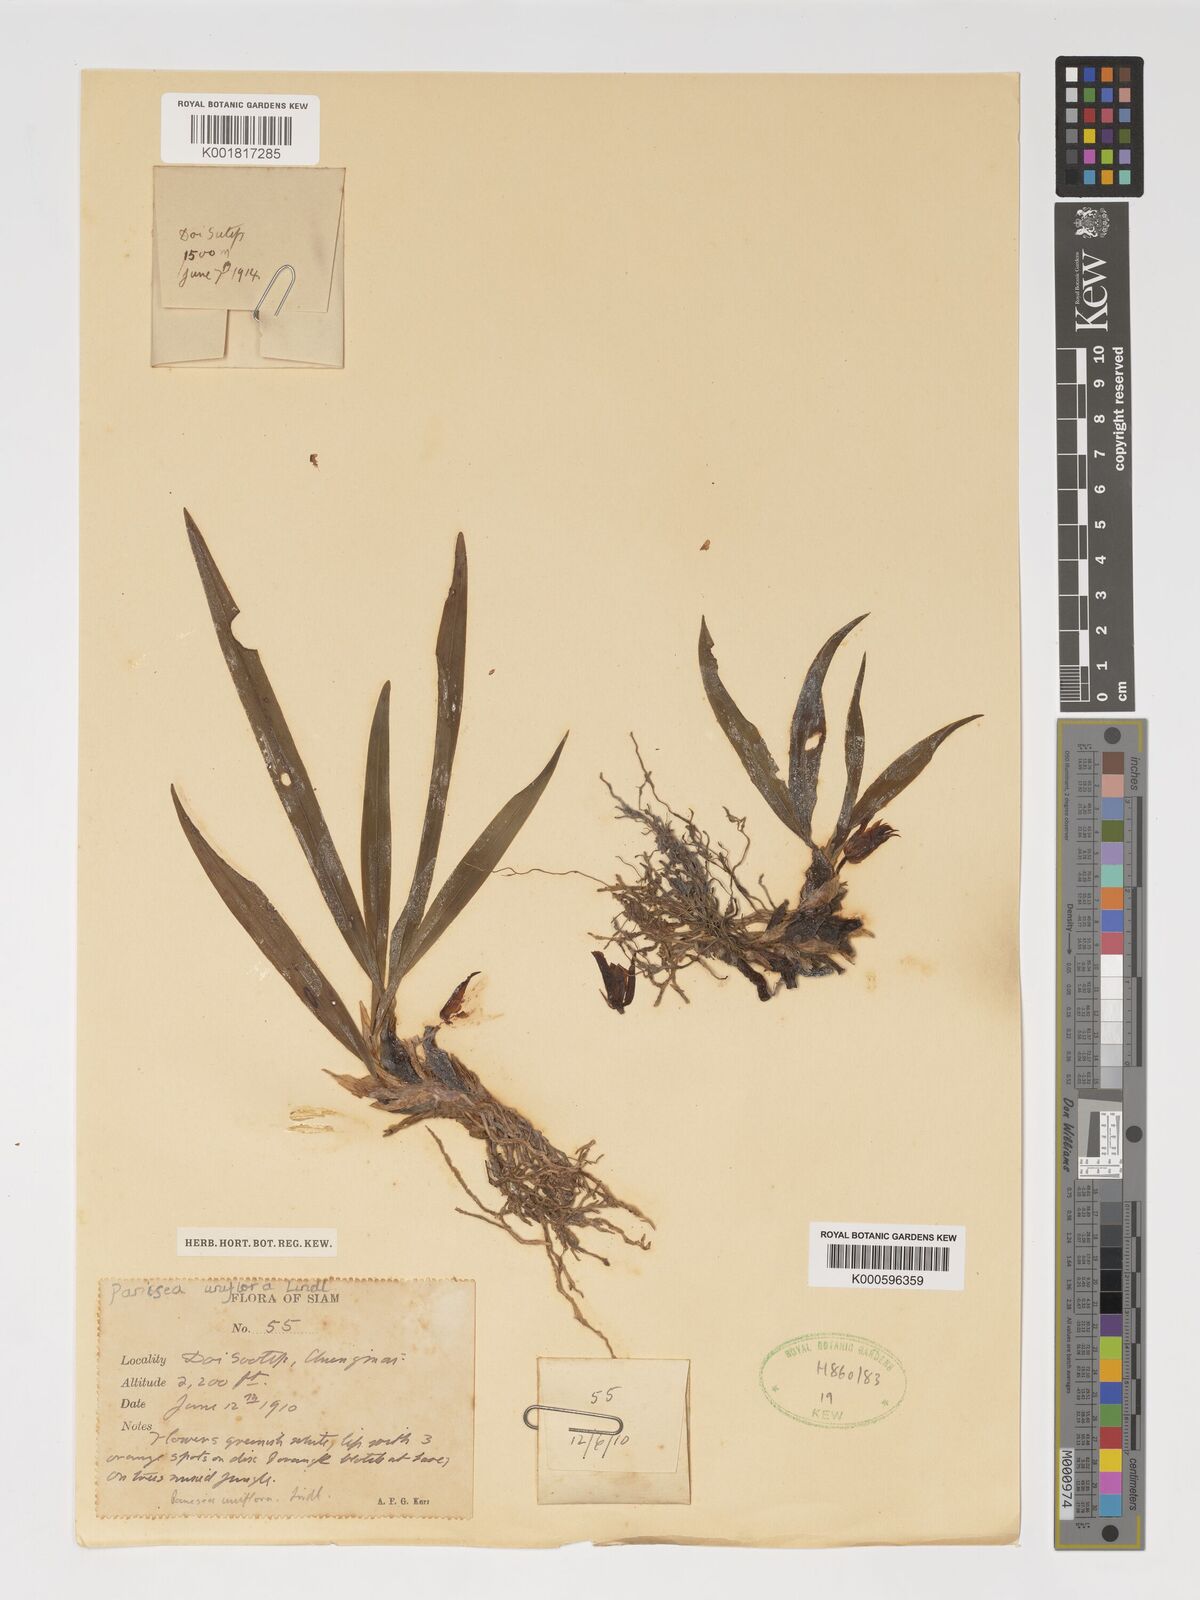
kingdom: Plantae
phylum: Tracheophyta
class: Liliopsida
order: Asparagales
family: Orchidaceae
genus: Coelogyne
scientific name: Coelogyne uniflora
